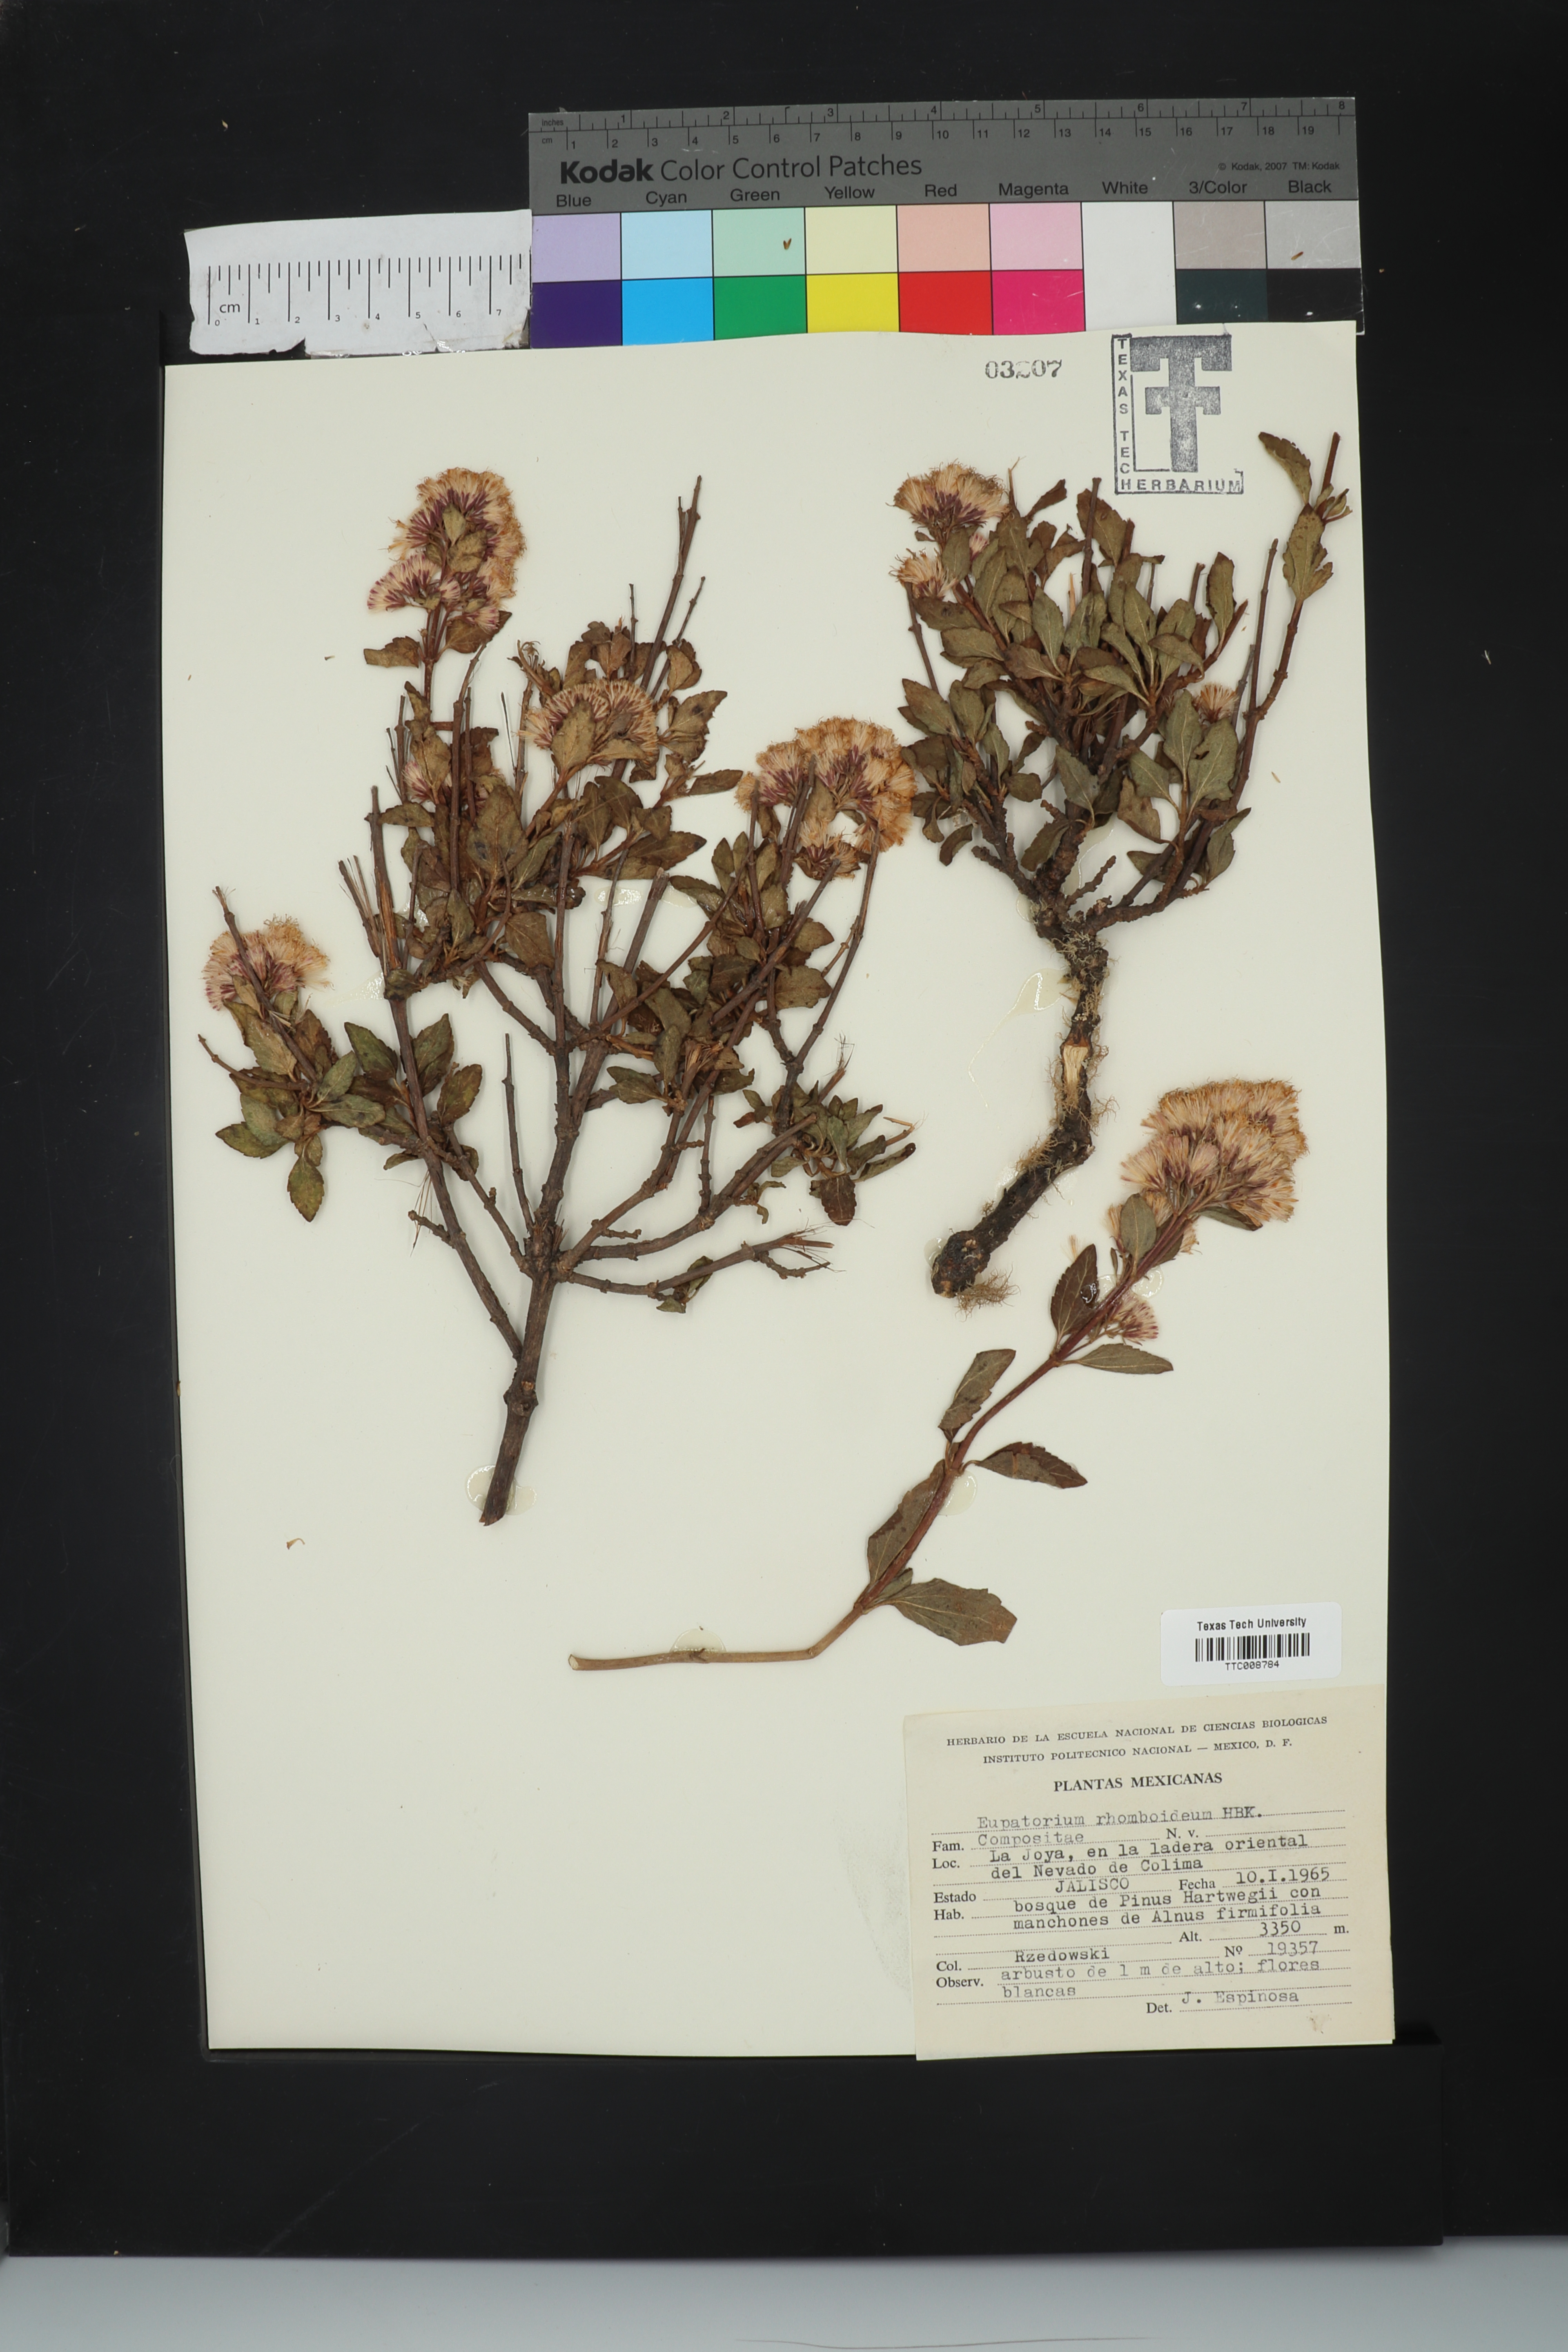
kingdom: Plantae
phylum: Tracheophyta
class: Magnoliopsida
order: Asterales
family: Asteraceae
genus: Ageratina
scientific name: Ageratina rhomboidea
